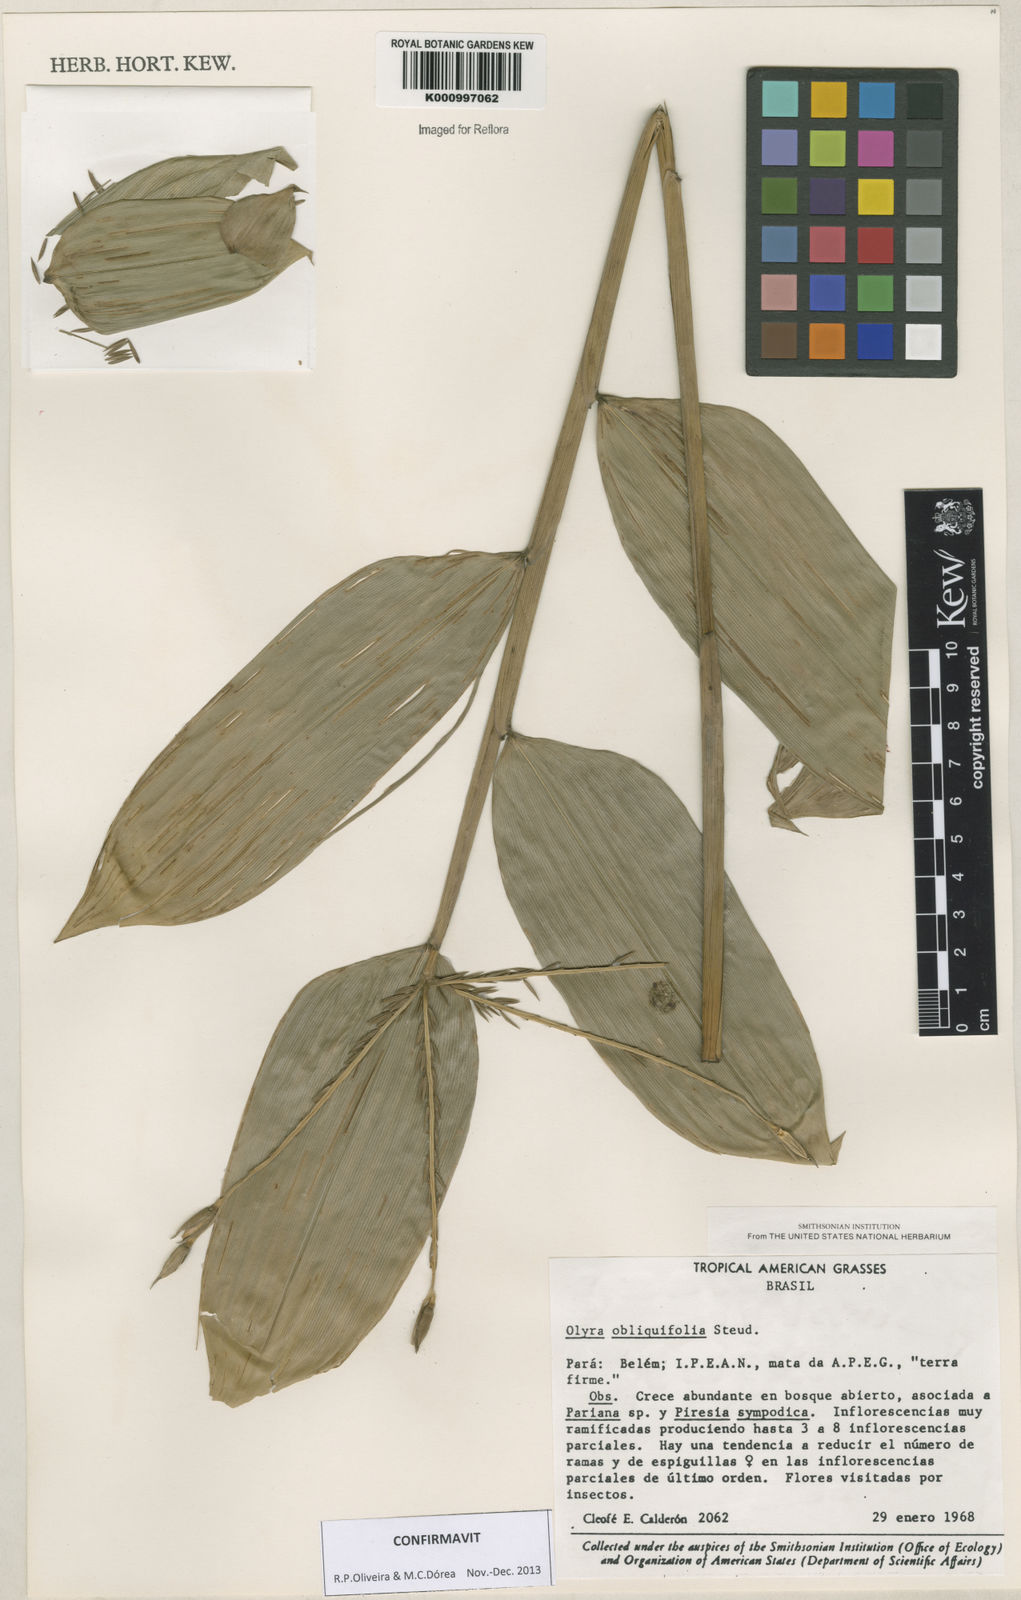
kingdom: Plantae
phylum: Tracheophyta
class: Liliopsida
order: Poales
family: Poaceae
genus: Olyra
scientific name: Olyra obliquifolia
